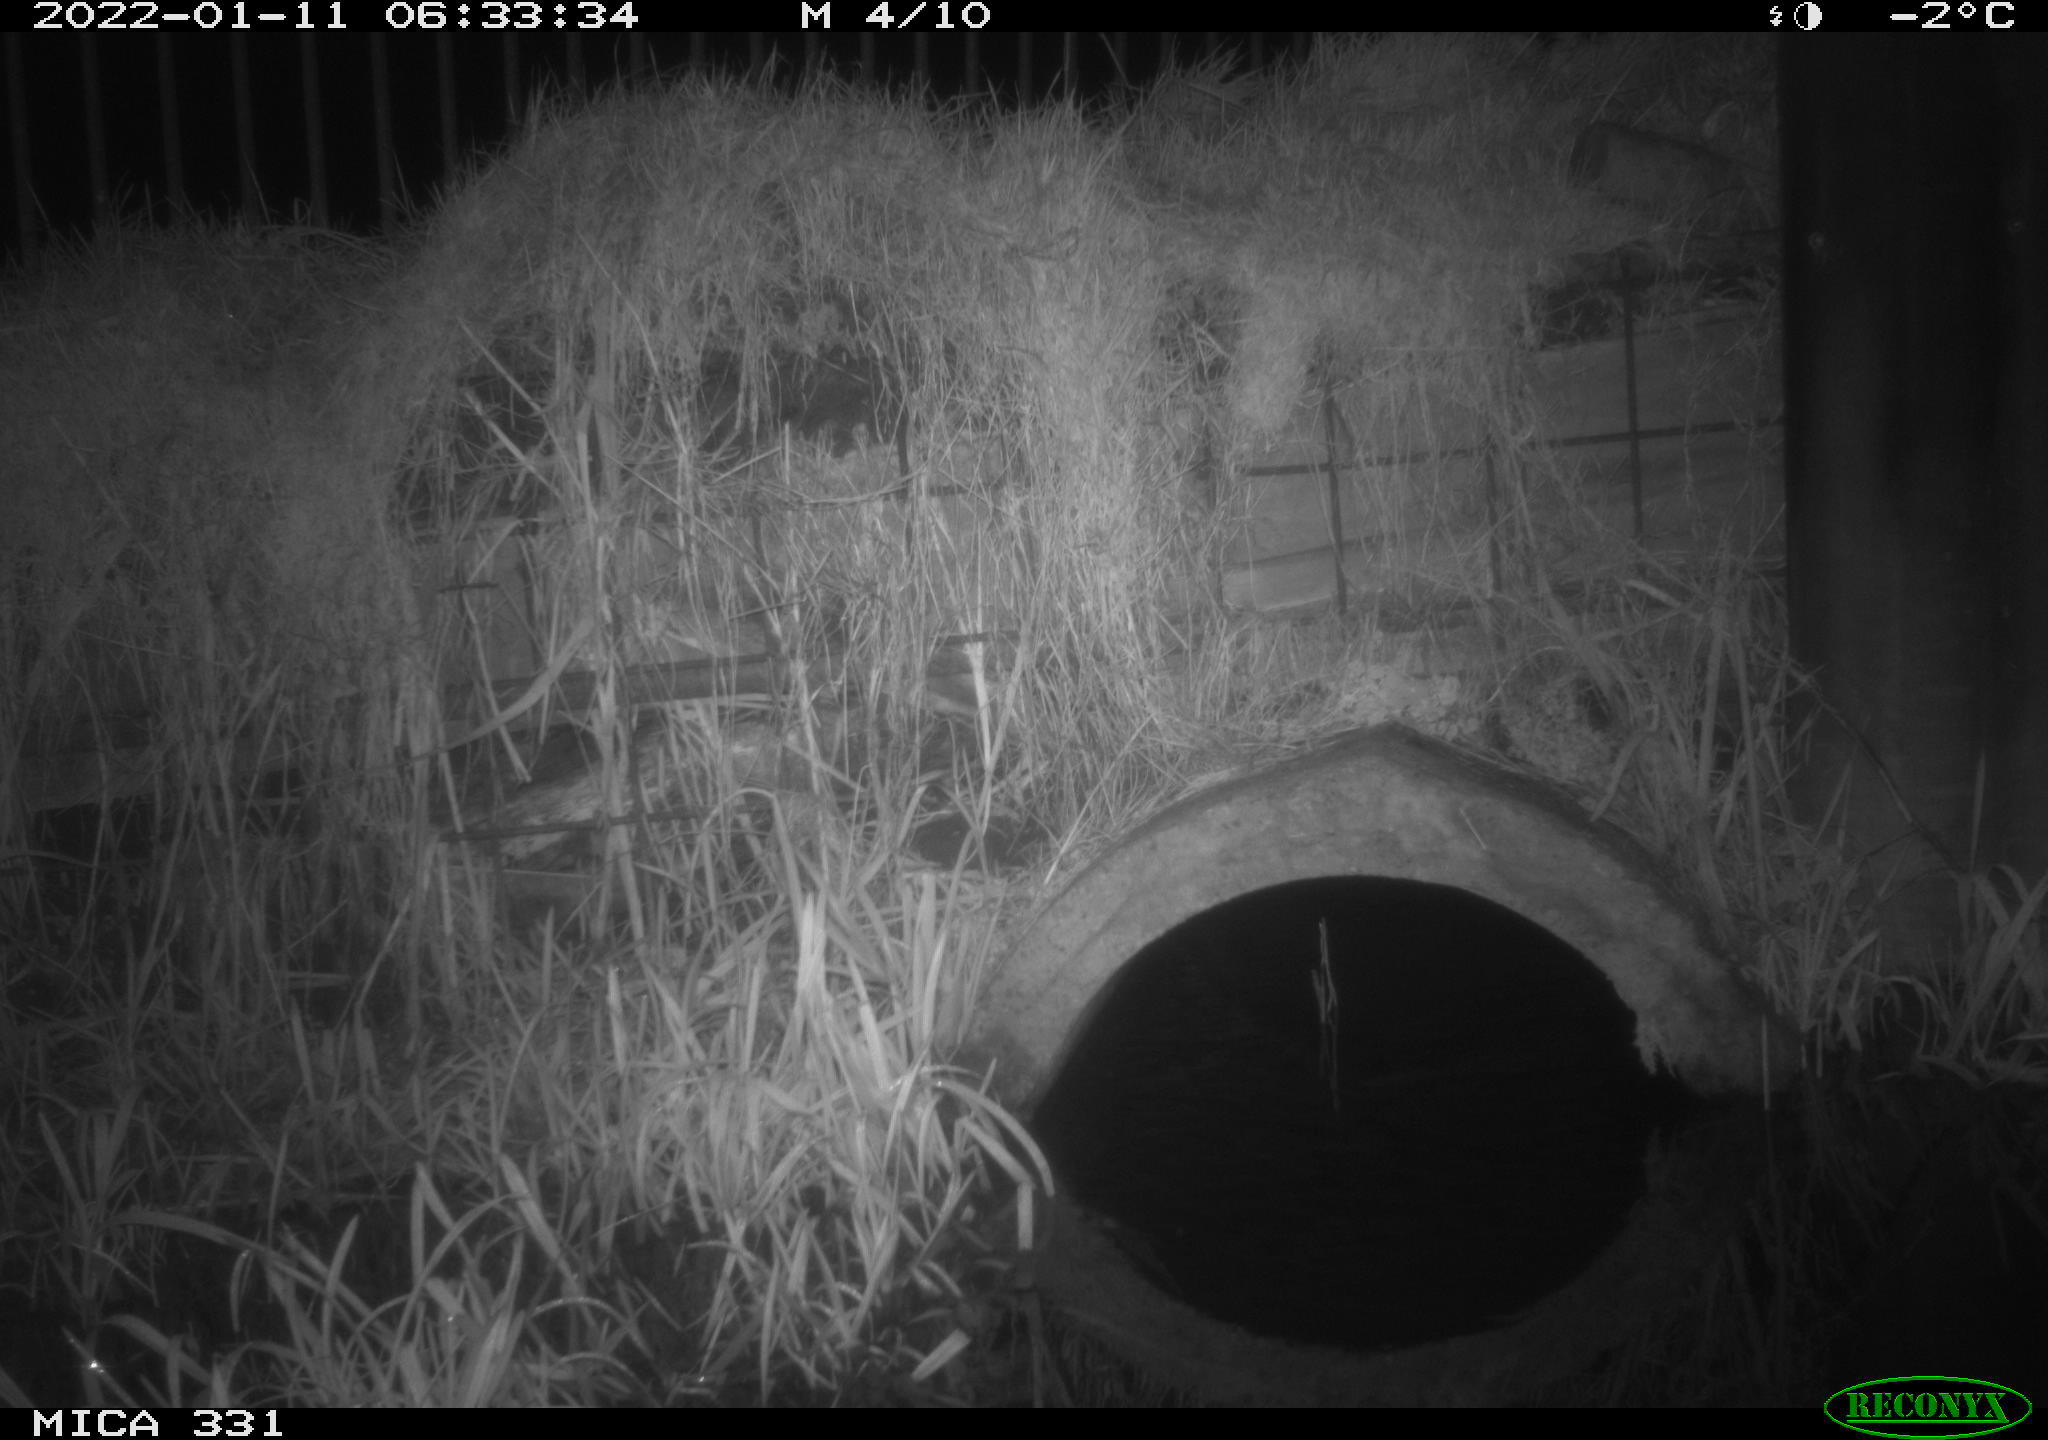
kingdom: Animalia
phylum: Chordata
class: Mammalia
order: Carnivora
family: Canidae
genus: Vulpes
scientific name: Vulpes vulpes
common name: Red fox
